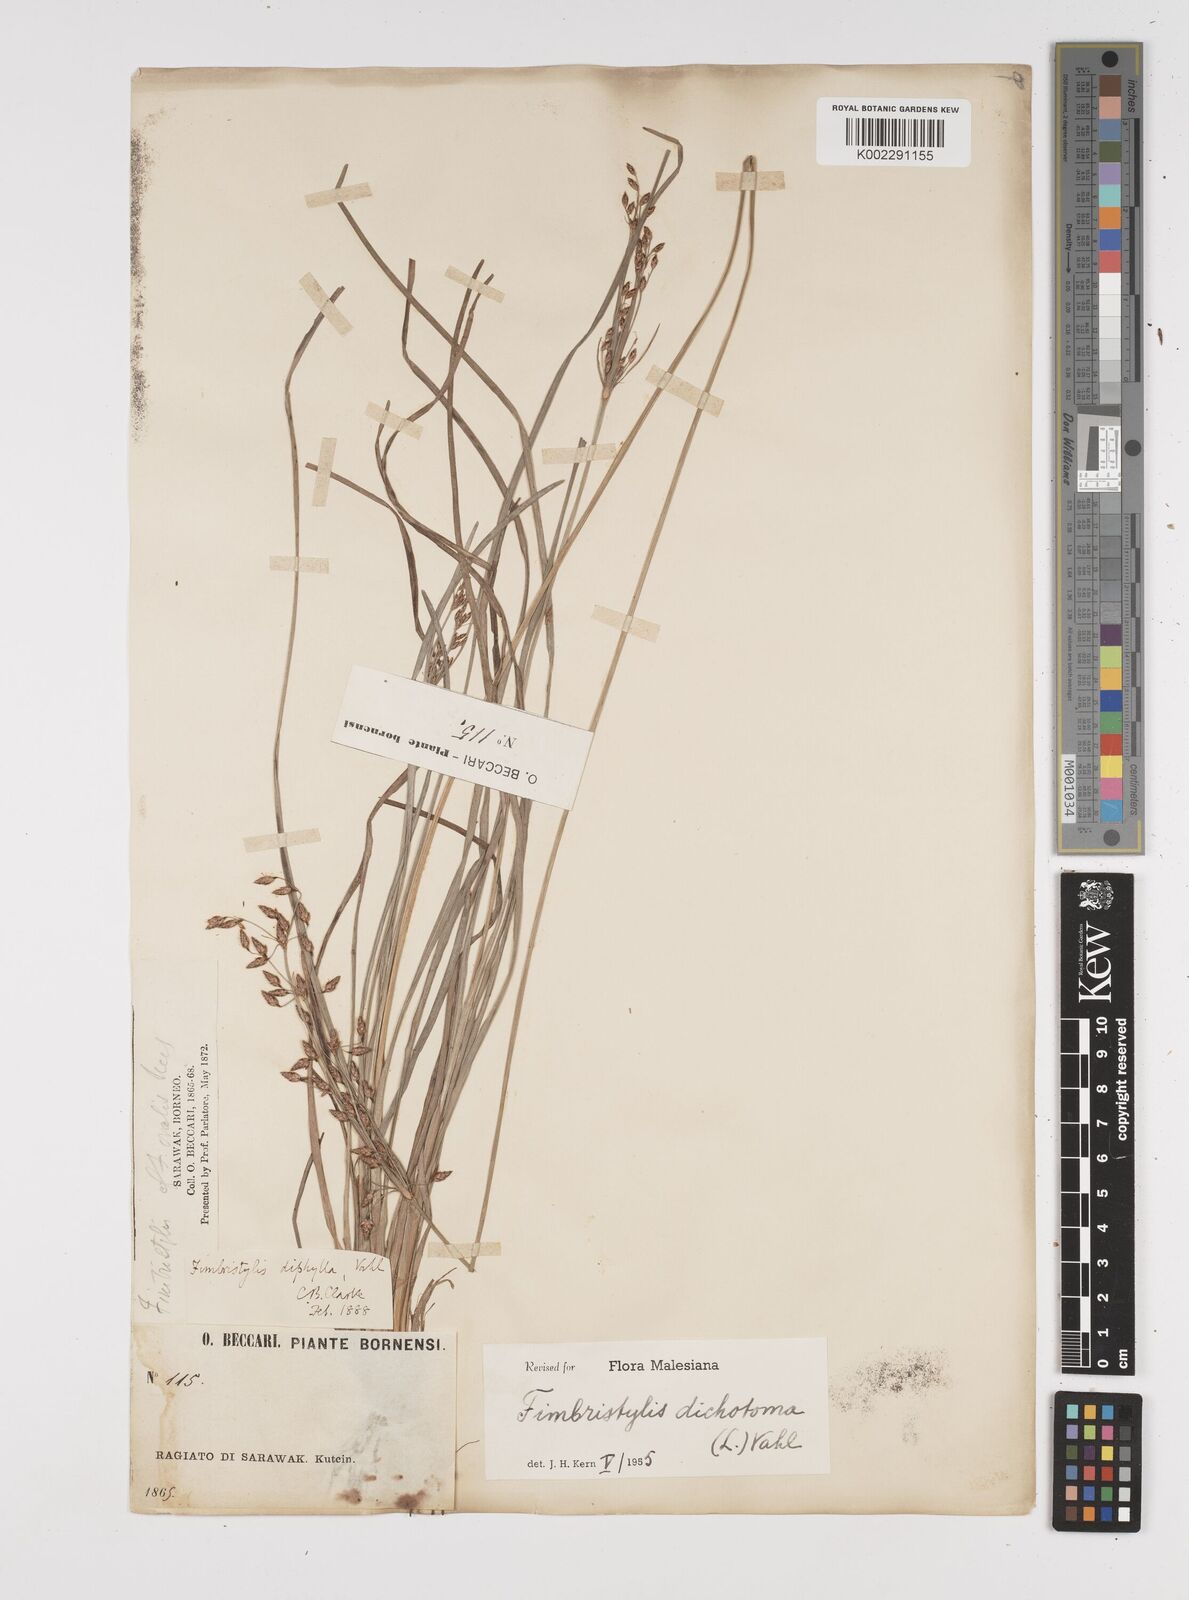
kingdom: Plantae
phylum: Tracheophyta
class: Liliopsida
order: Poales
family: Cyperaceae
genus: Fimbristylis
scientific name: Fimbristylis dichotoma
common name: Forked fimbry
